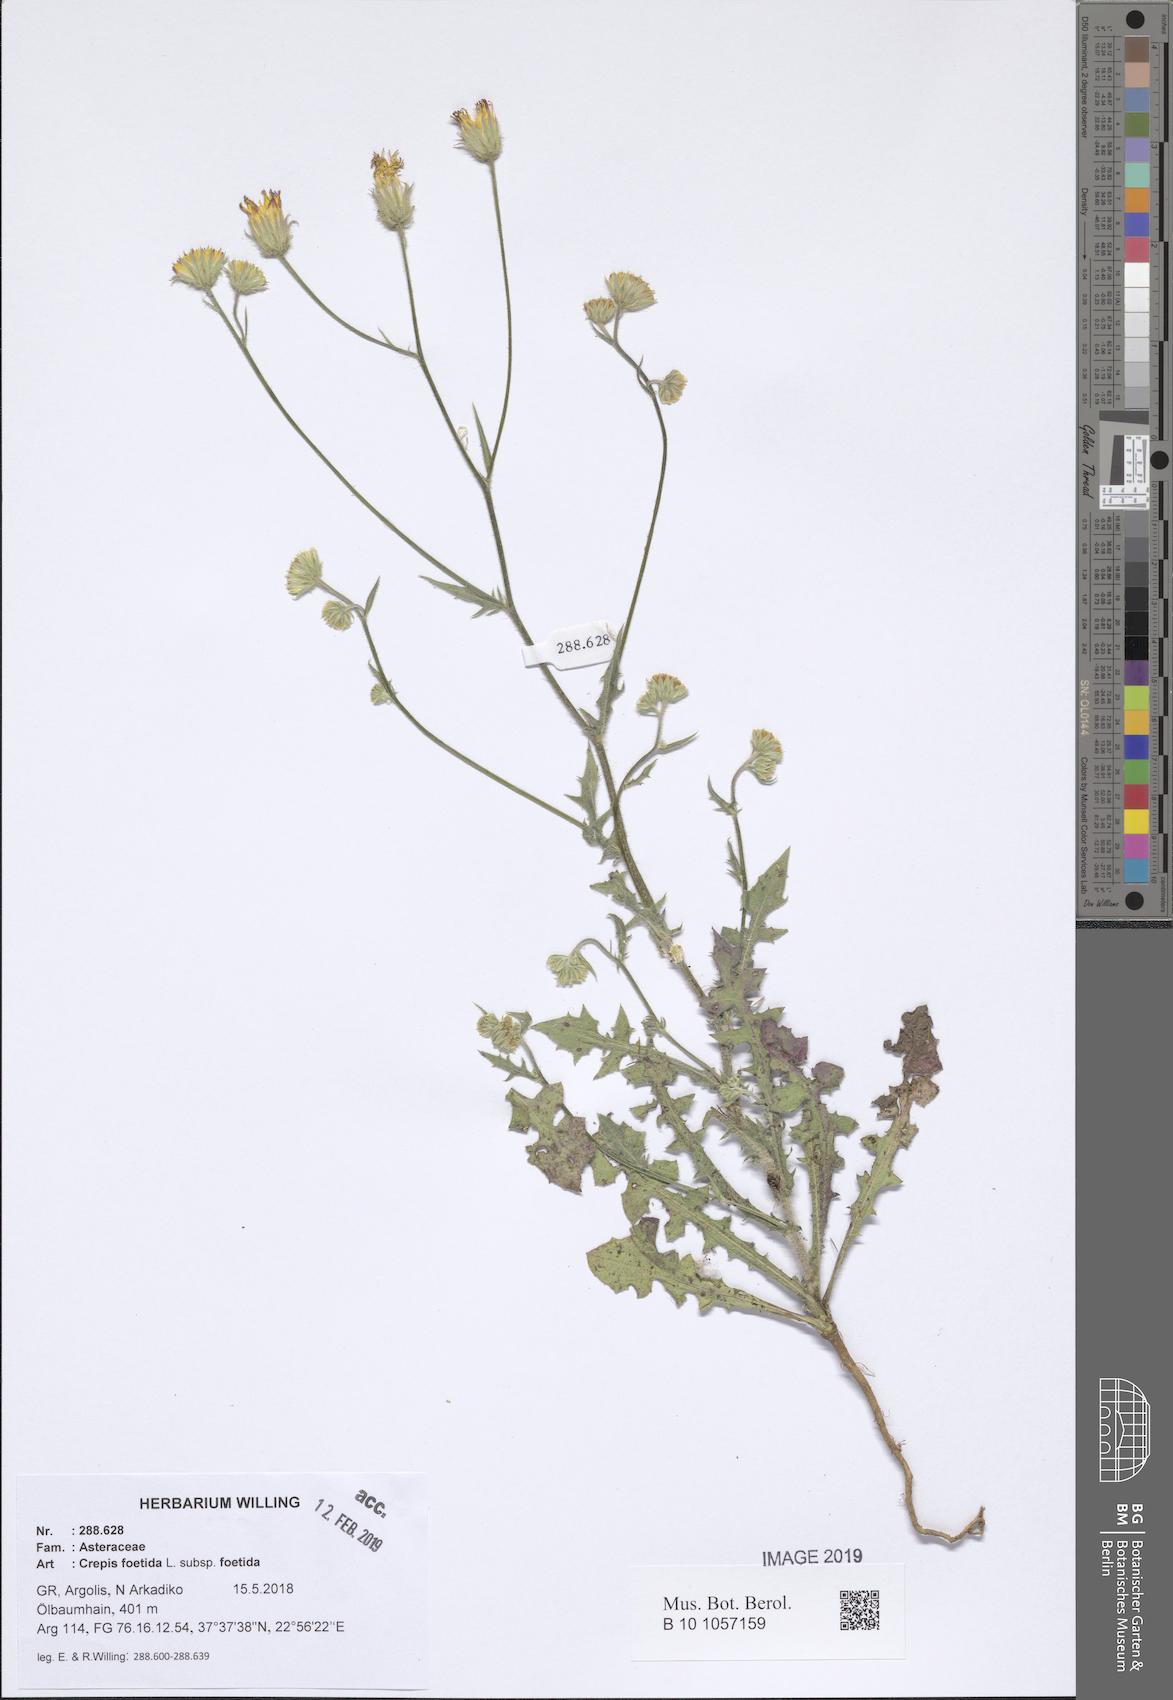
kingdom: Plantae
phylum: Tracheophyta
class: Magnoliopsida
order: Asterales
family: Asteraceae
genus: Crepis
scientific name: Crepis foetida
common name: Stinking hawk's-beard
